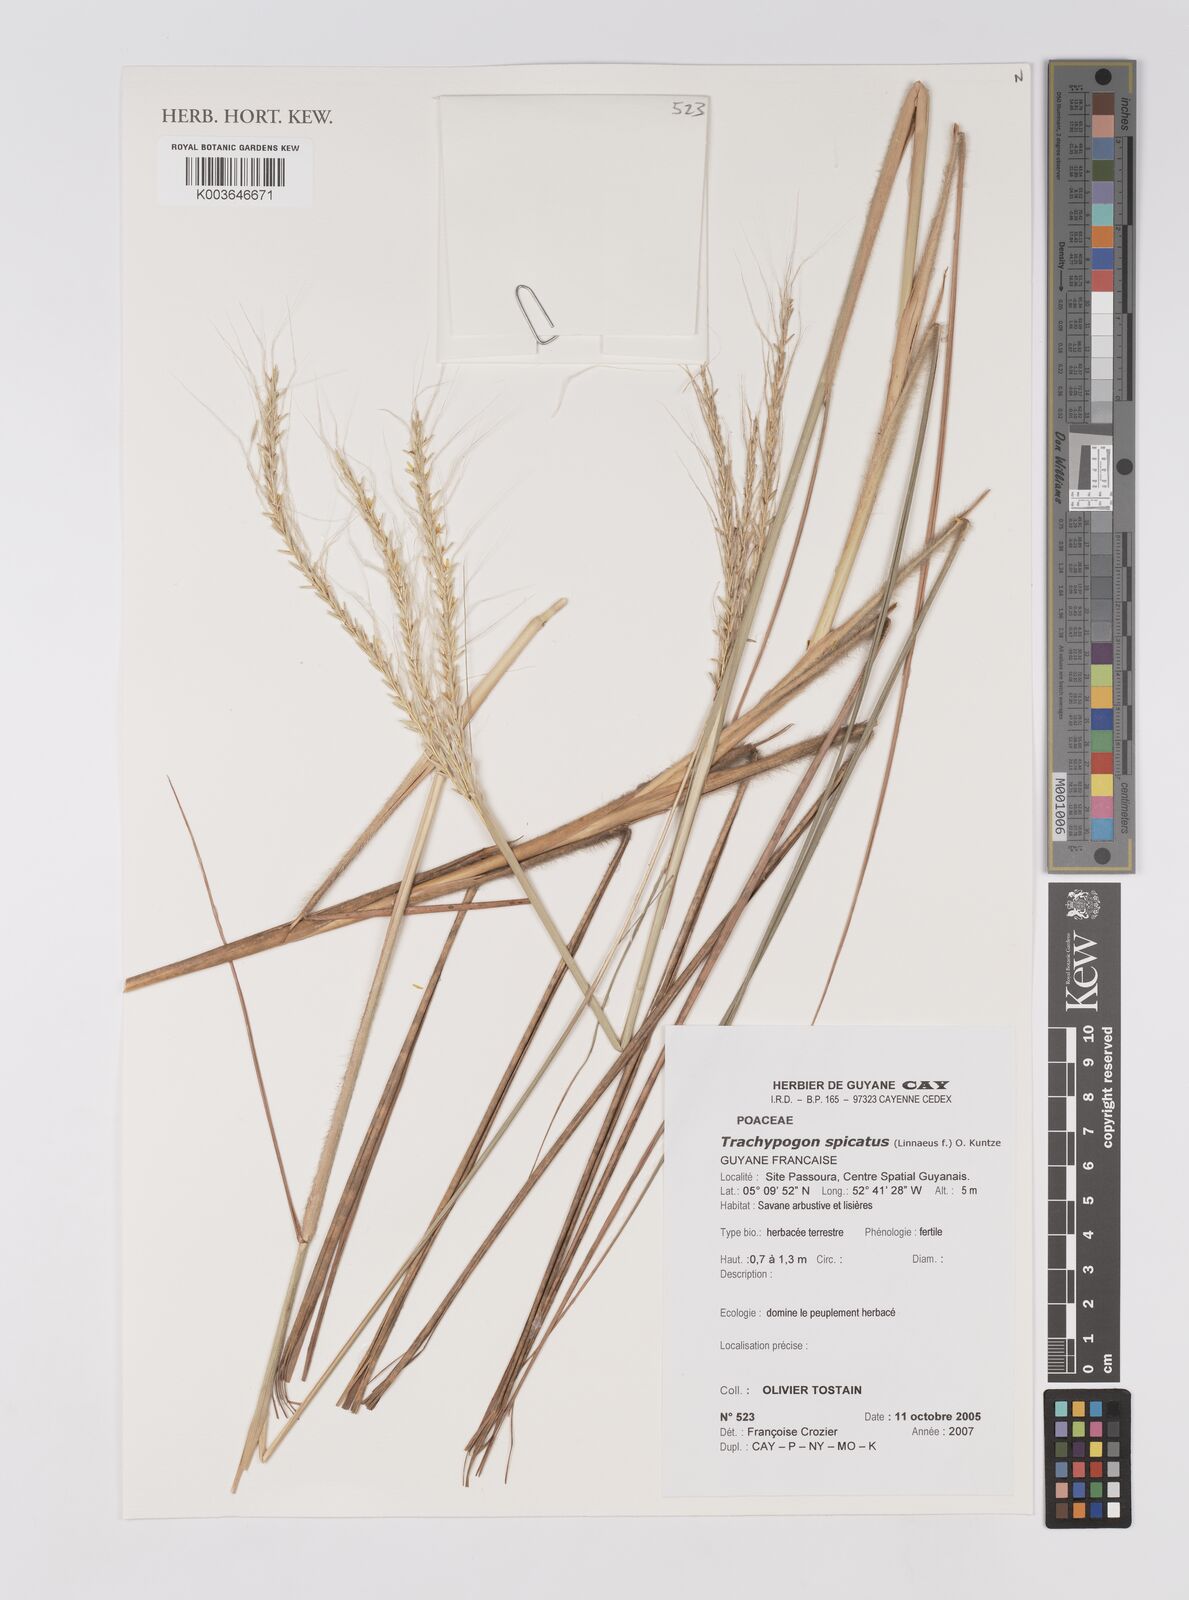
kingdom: Plantae
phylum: Tracheophyta
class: Liliopsida
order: Poales
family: Poaceae
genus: Trachypogon
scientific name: Trachypogon spicatus
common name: Crinkle-awn
